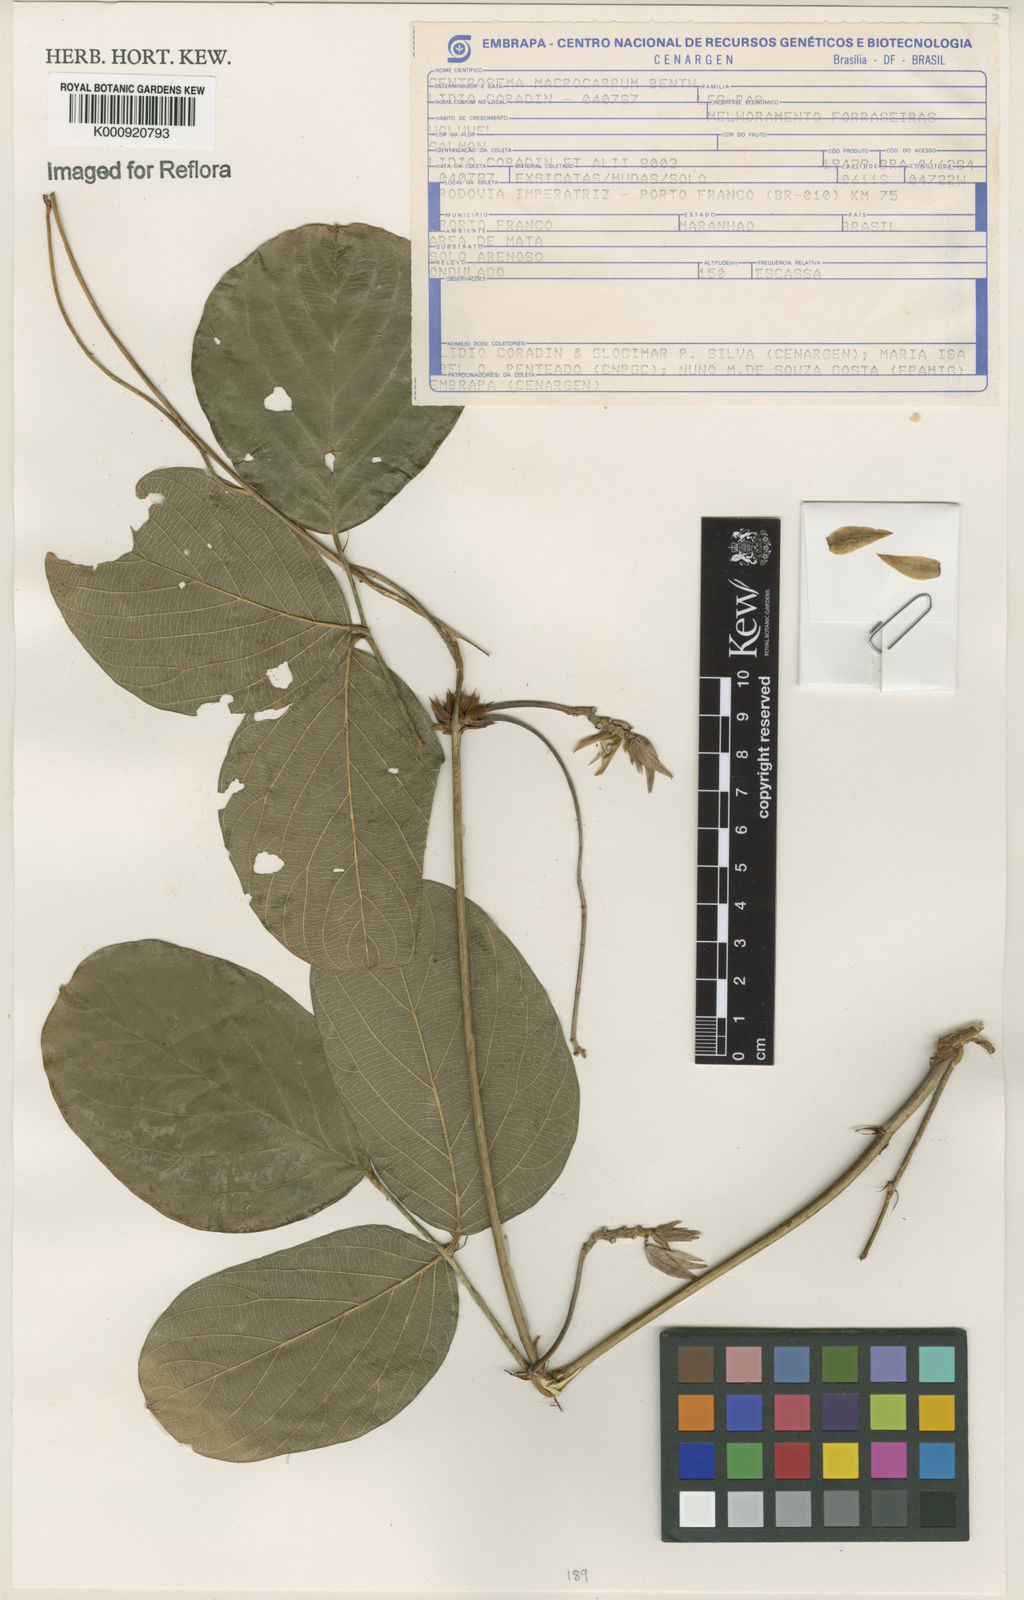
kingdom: Plantae
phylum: Tracheophyta
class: Magnoliopsida
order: Fabales
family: Fabaceae
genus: Centrosema
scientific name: Centrosema macrocarpum
